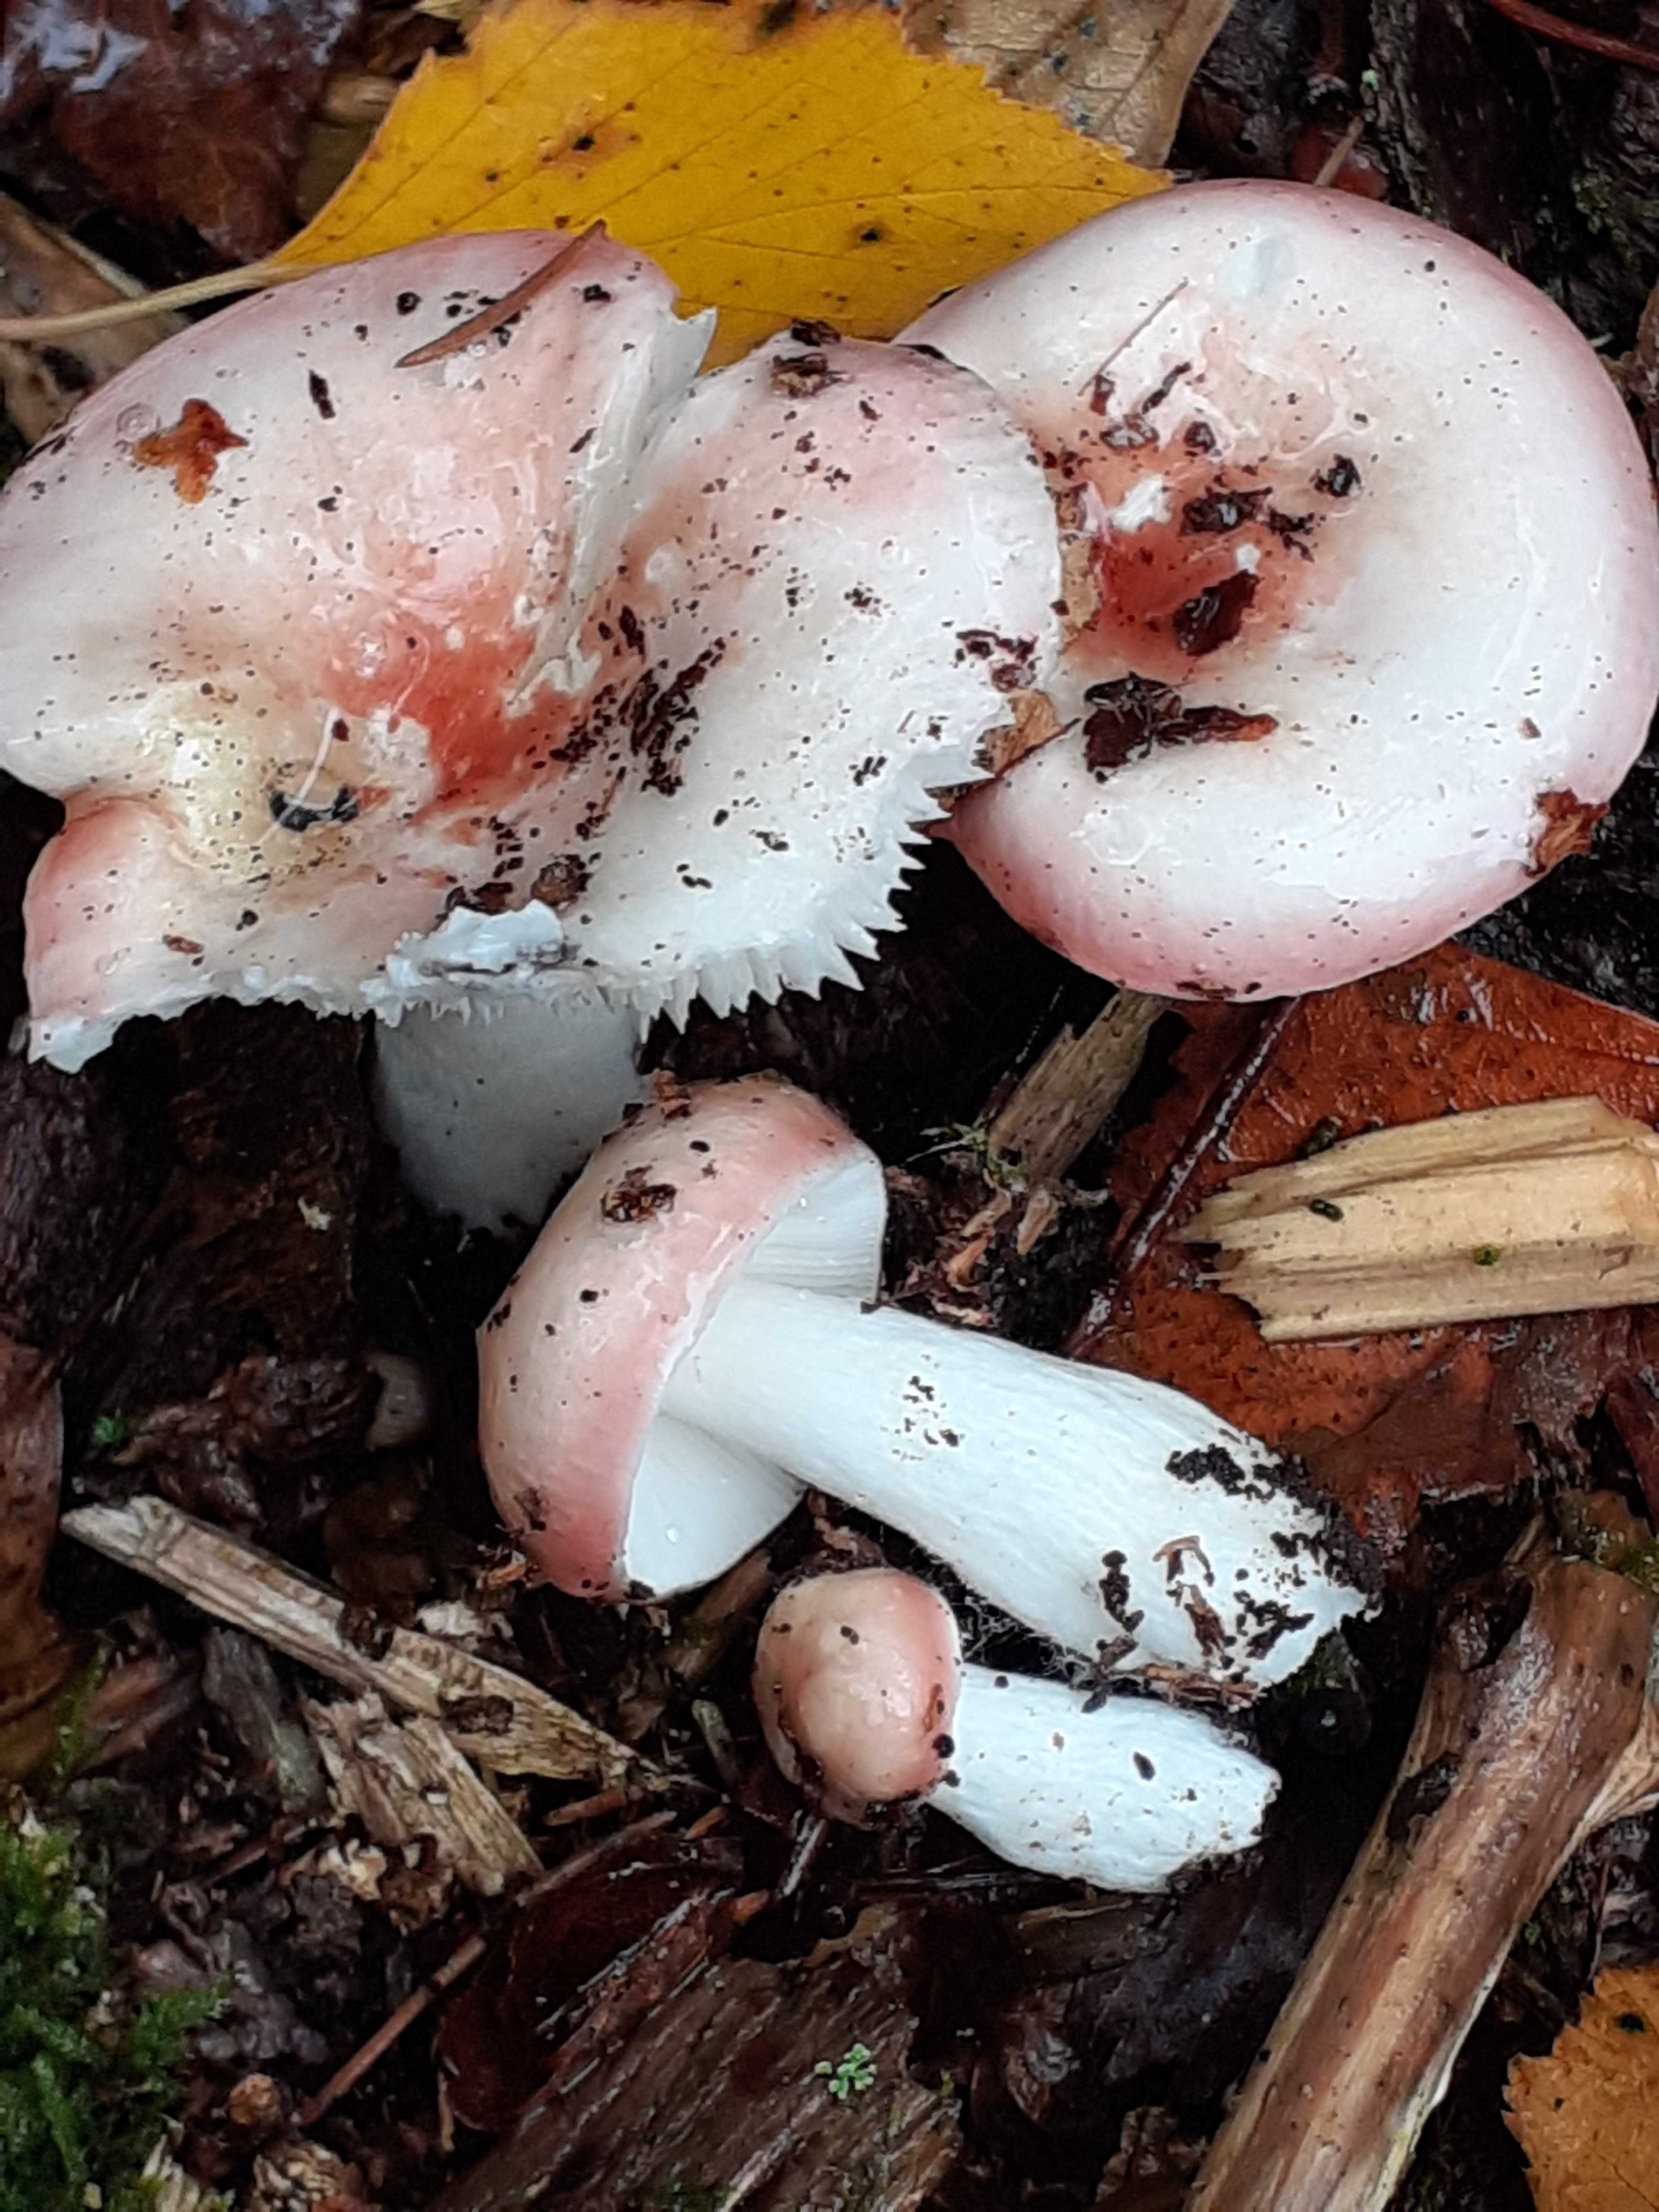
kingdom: Fungi
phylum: Basidiomycota
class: Agaricomycetes
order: Russulales
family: Russulaceae
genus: Russula
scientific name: Russula betularum
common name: bleg gift-skørhat
